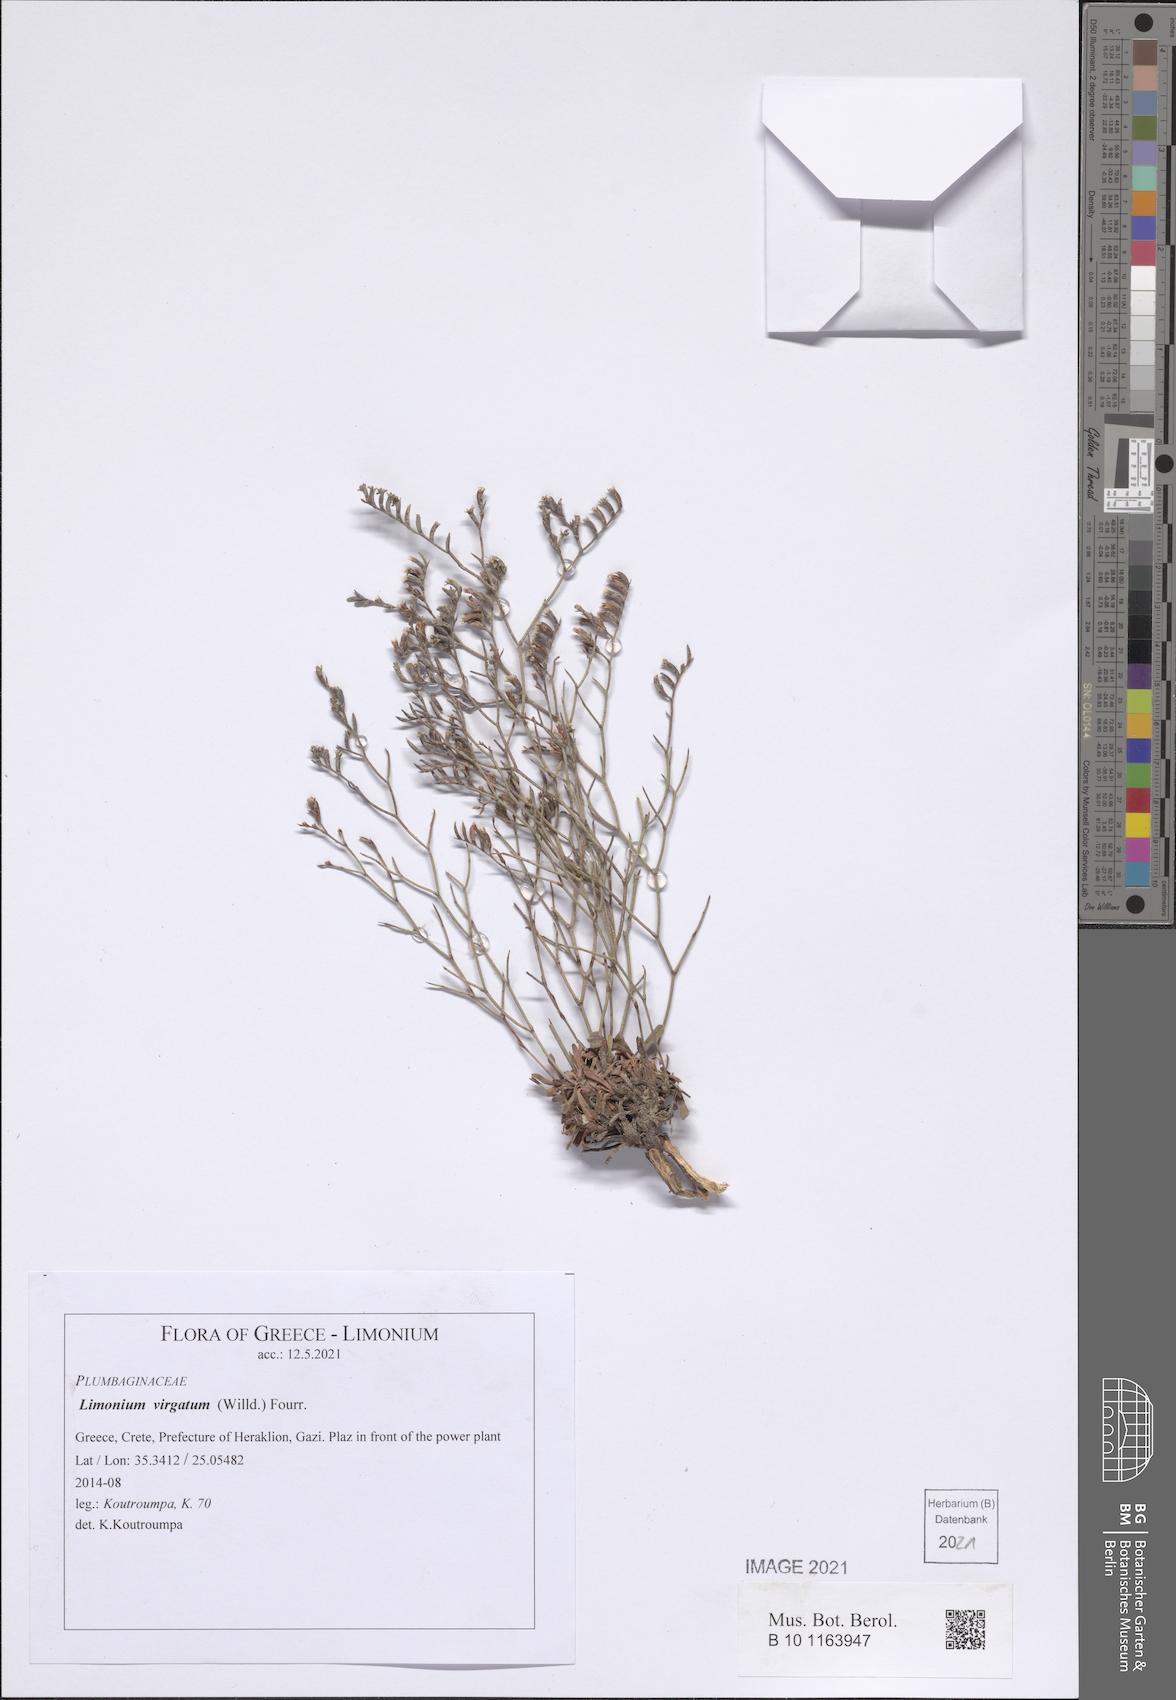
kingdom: Plantae
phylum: Tracheophyta
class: Magnoliopsida
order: Caryophyllales
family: Plumbaginaceae
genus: Limonium
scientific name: Limonium virgatum
